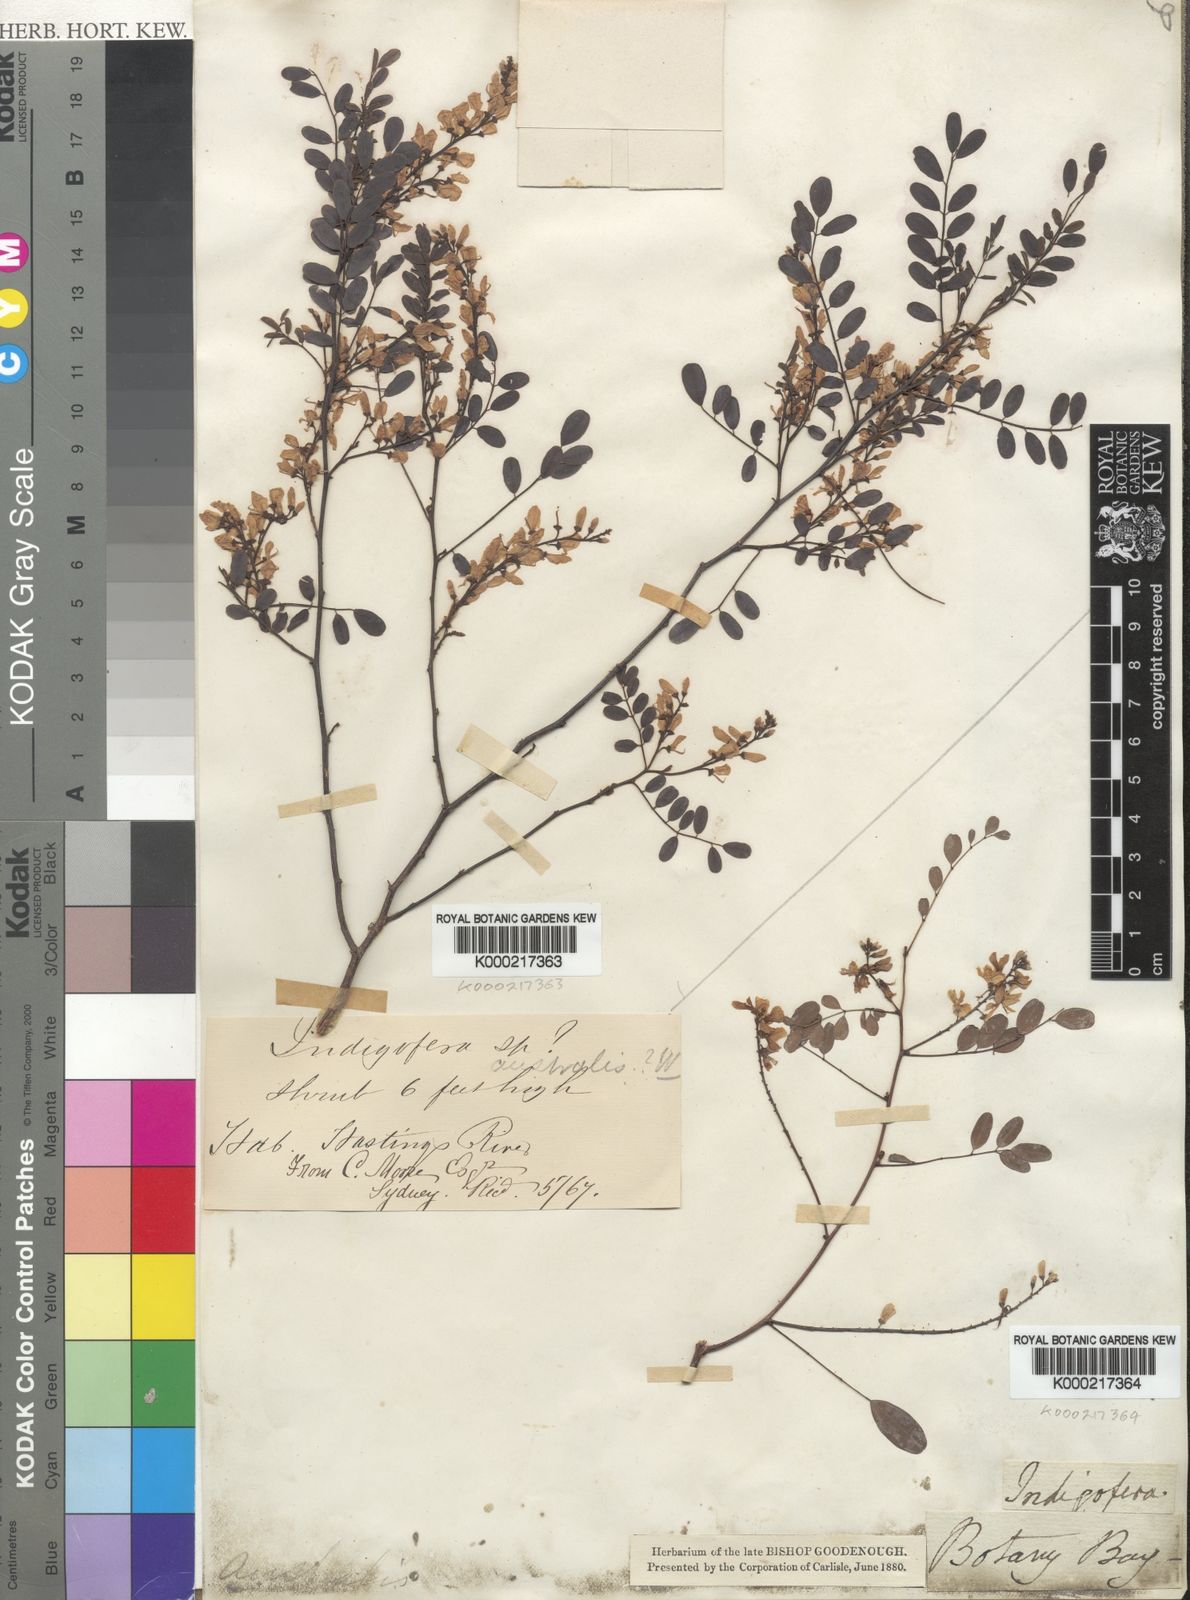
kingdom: Plantae
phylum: Tracheophyta
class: Magnoliopsida
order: Fabales
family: Fabaceae
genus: Indigofera
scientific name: Indigofera
